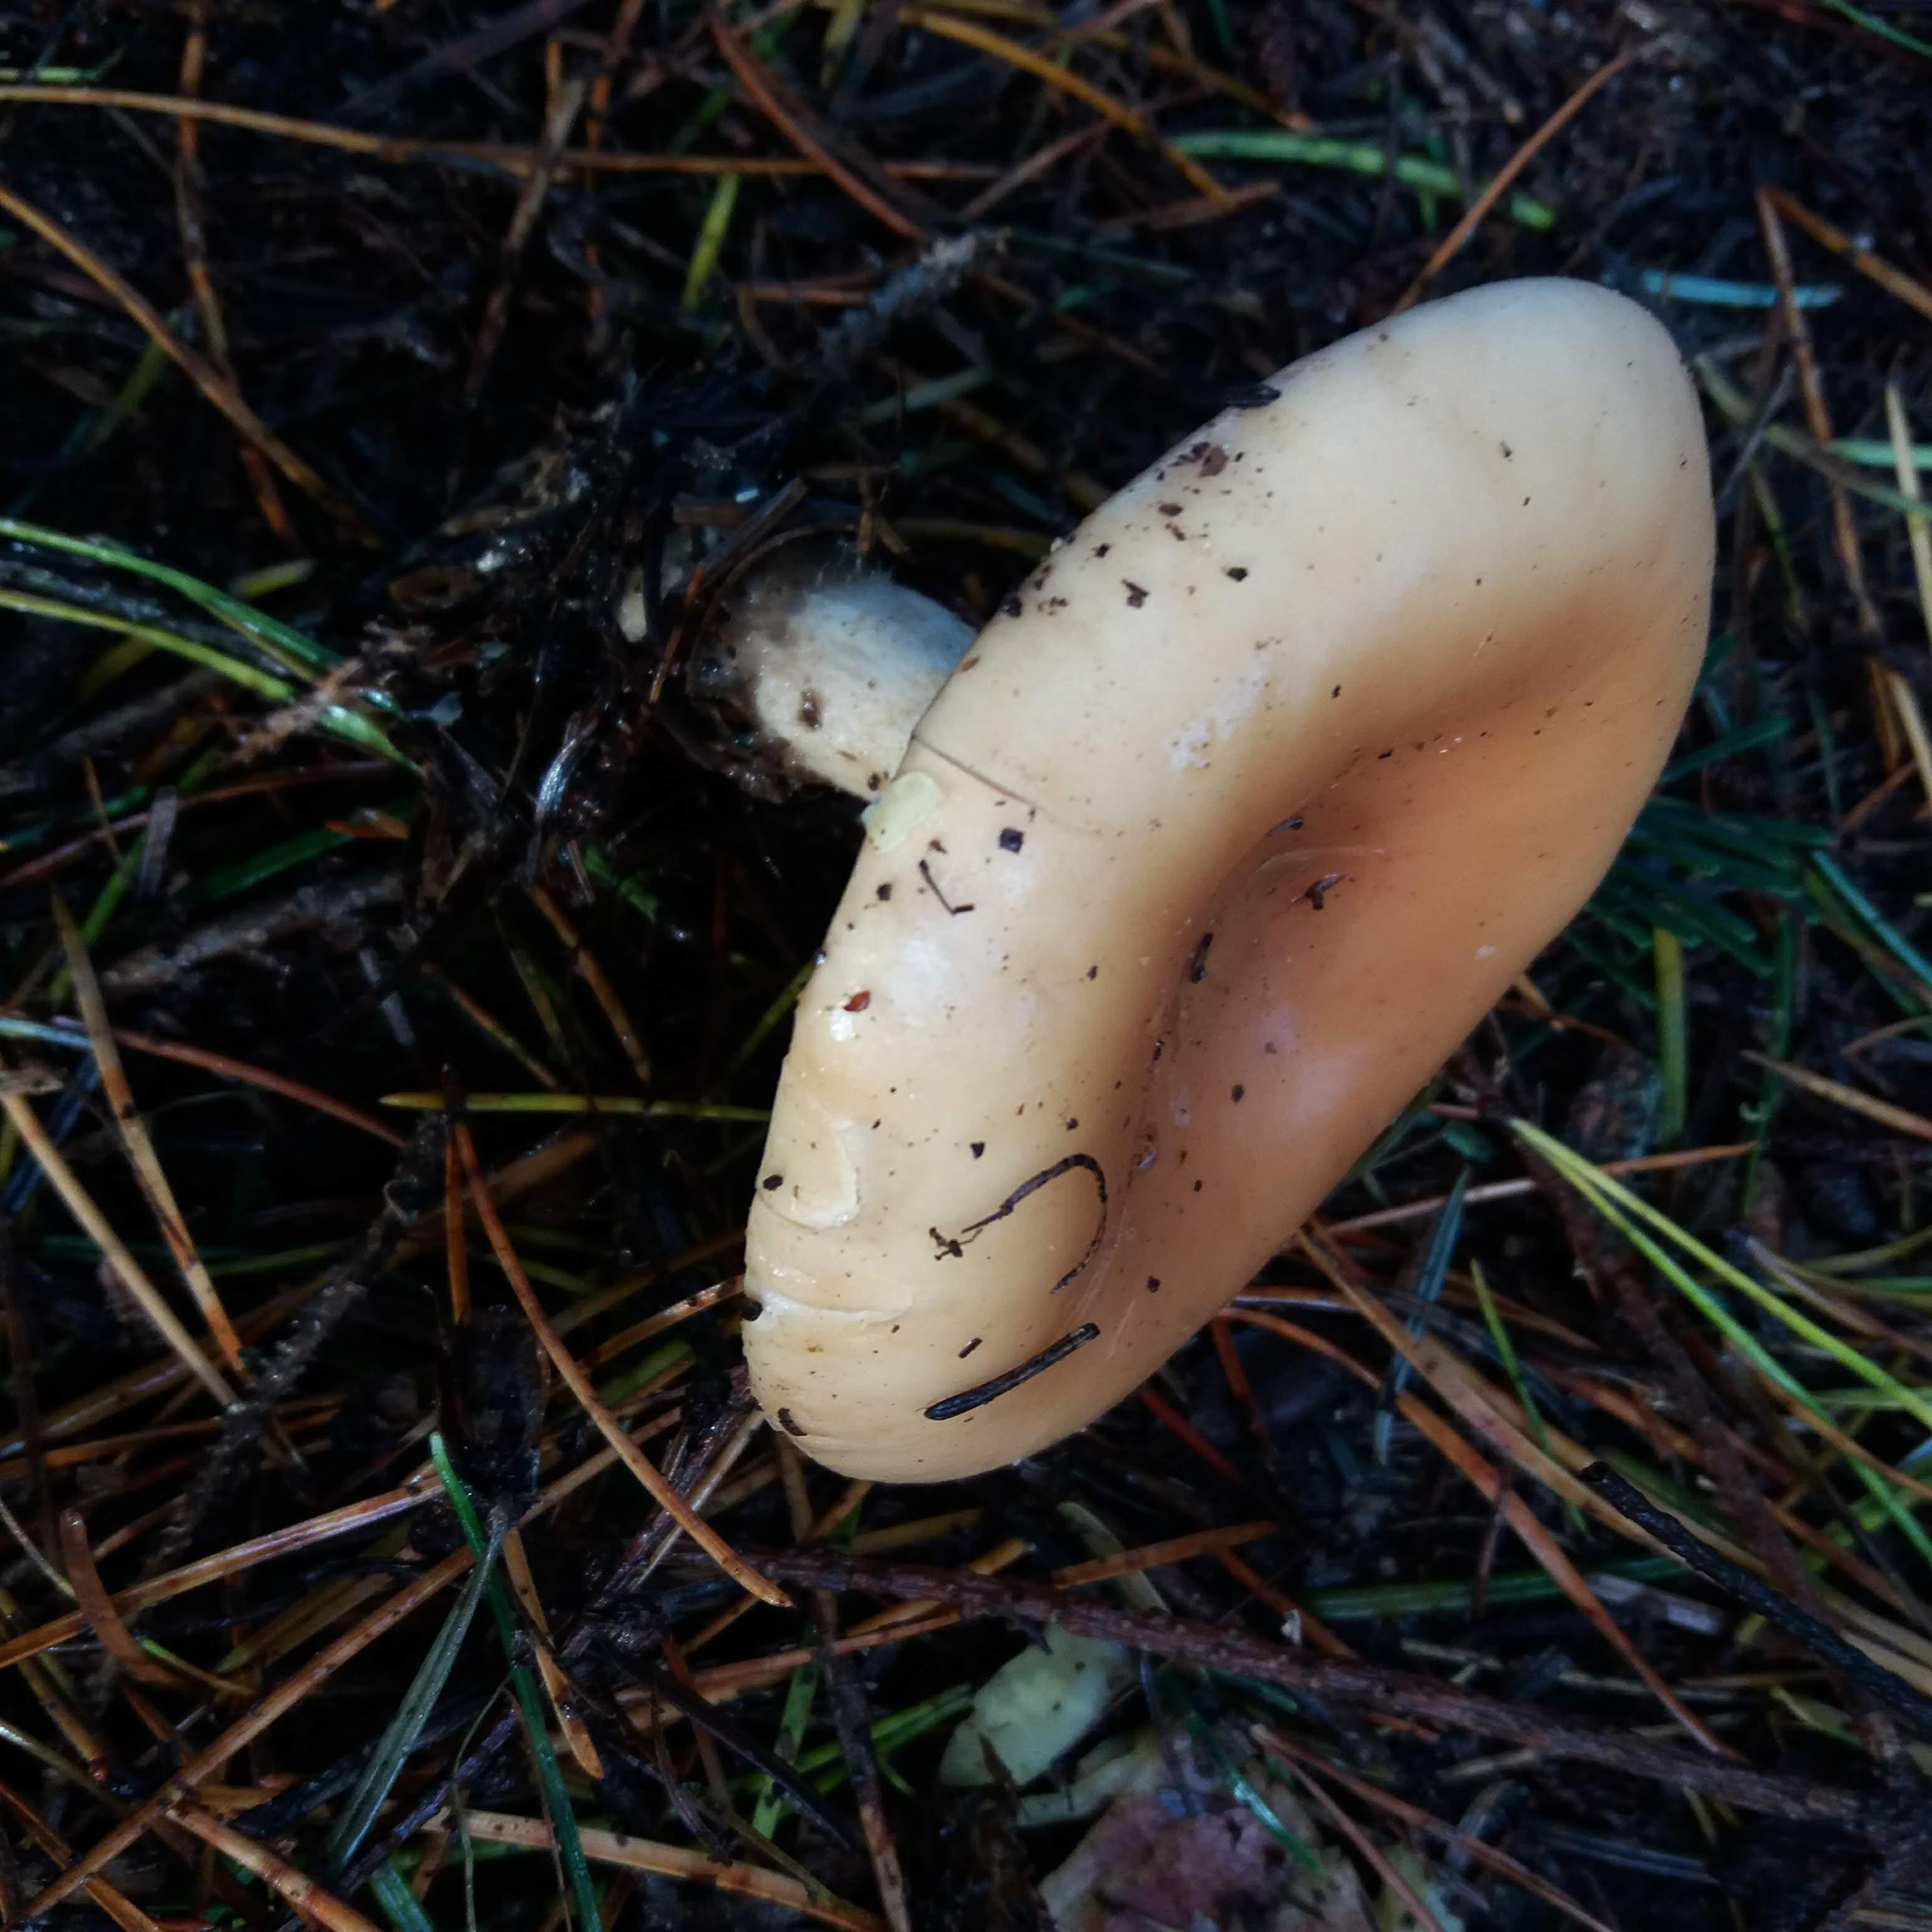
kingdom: Fungi
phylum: Basidiomycota
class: Agaricomycetes
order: Agaricales
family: Tricholomataceae
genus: Paralepista
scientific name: Paralepista flaccida
